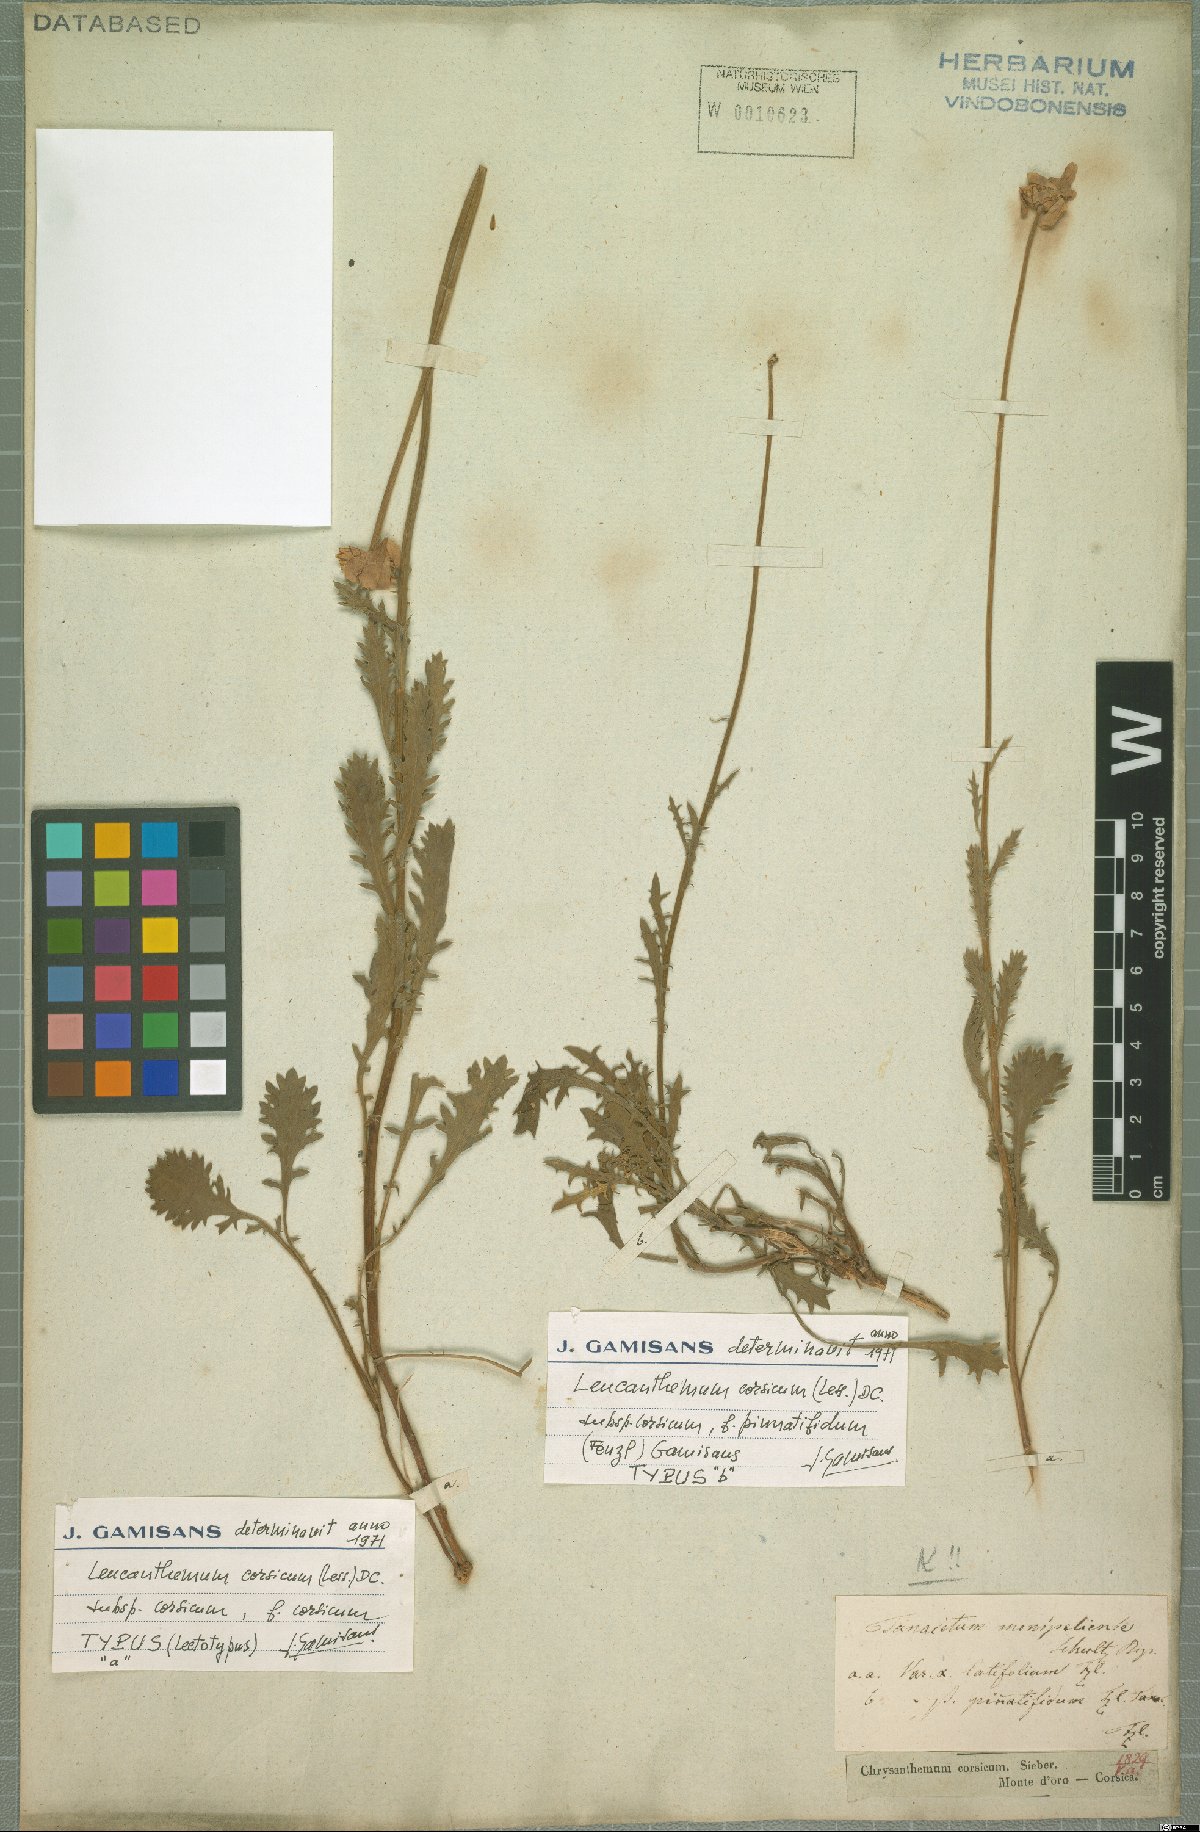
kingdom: Plantae
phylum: Tracheophyta
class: Magnoliopsida
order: Asterales
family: Asteraceae
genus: Leucanthemum
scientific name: Leucanthemum corsicum
